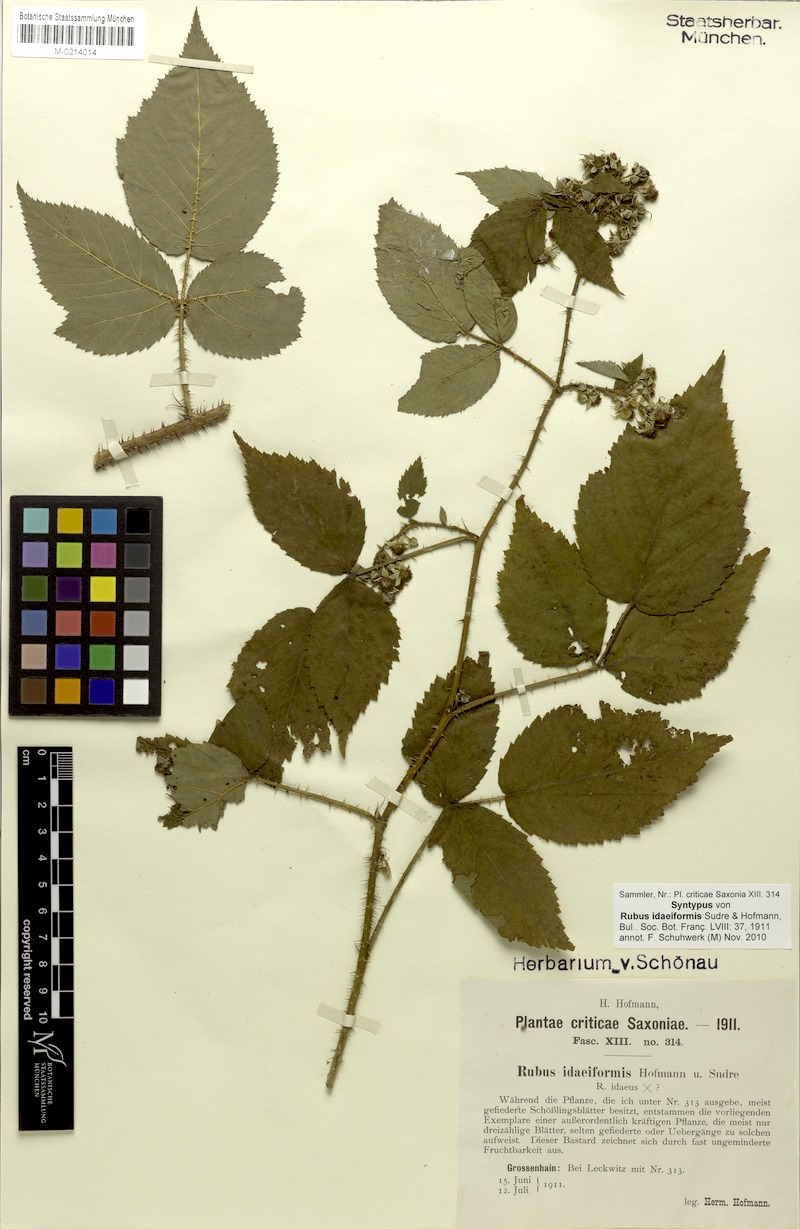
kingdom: Plantae
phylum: Tracheophyta
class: Magnoliopsida
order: Rosales
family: Rosaceae
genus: Rubus
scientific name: Rubus idaeiformis
